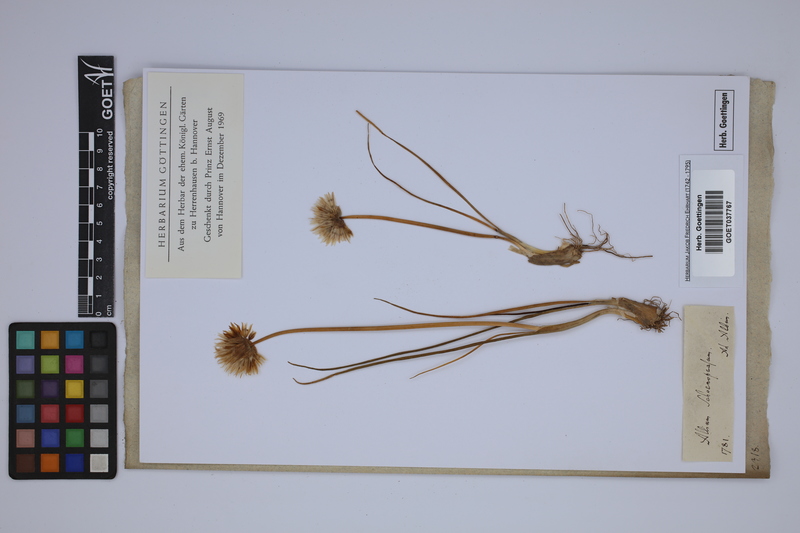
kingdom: Plantae
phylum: Tracheophyta
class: Liliopsida
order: Asparagales
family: Amaryllidaceae
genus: Allium
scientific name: Allium schoenoprasum
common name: Chives
